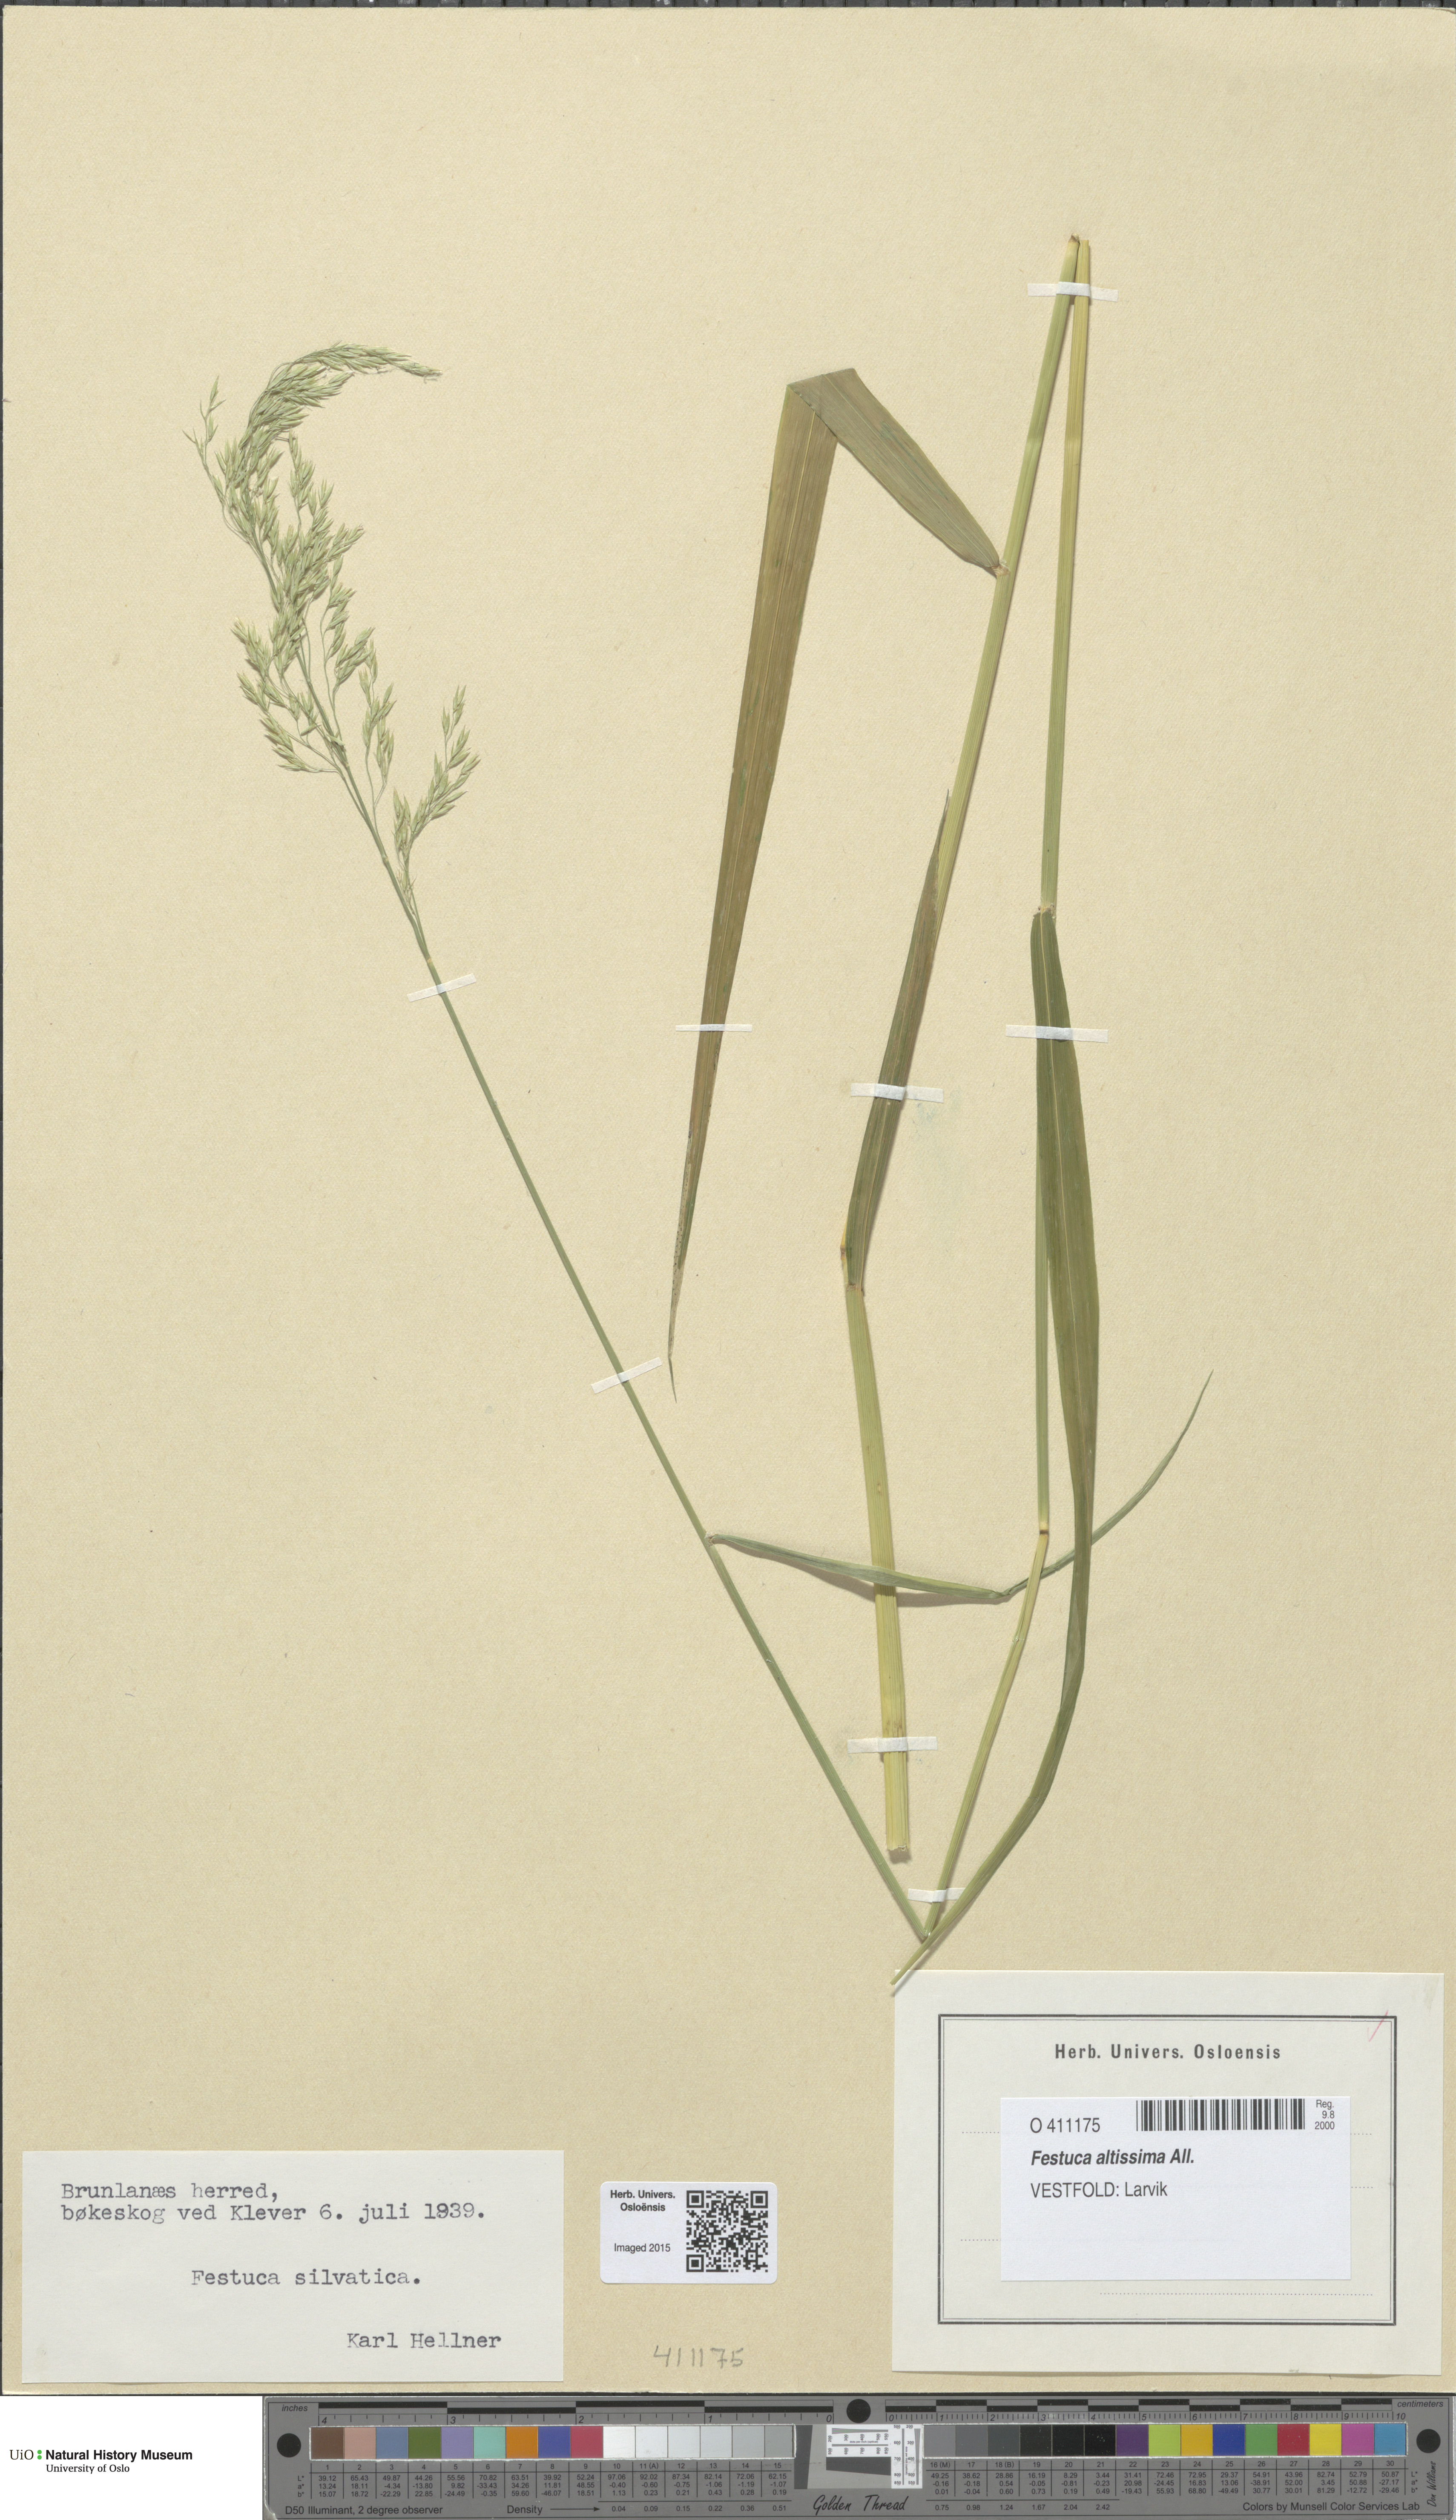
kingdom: Plantae
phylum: Tracheophyta
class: Liliopsida
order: Poales
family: Poaceae
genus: Festuca
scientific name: Festuca altissima
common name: Wood fescue
